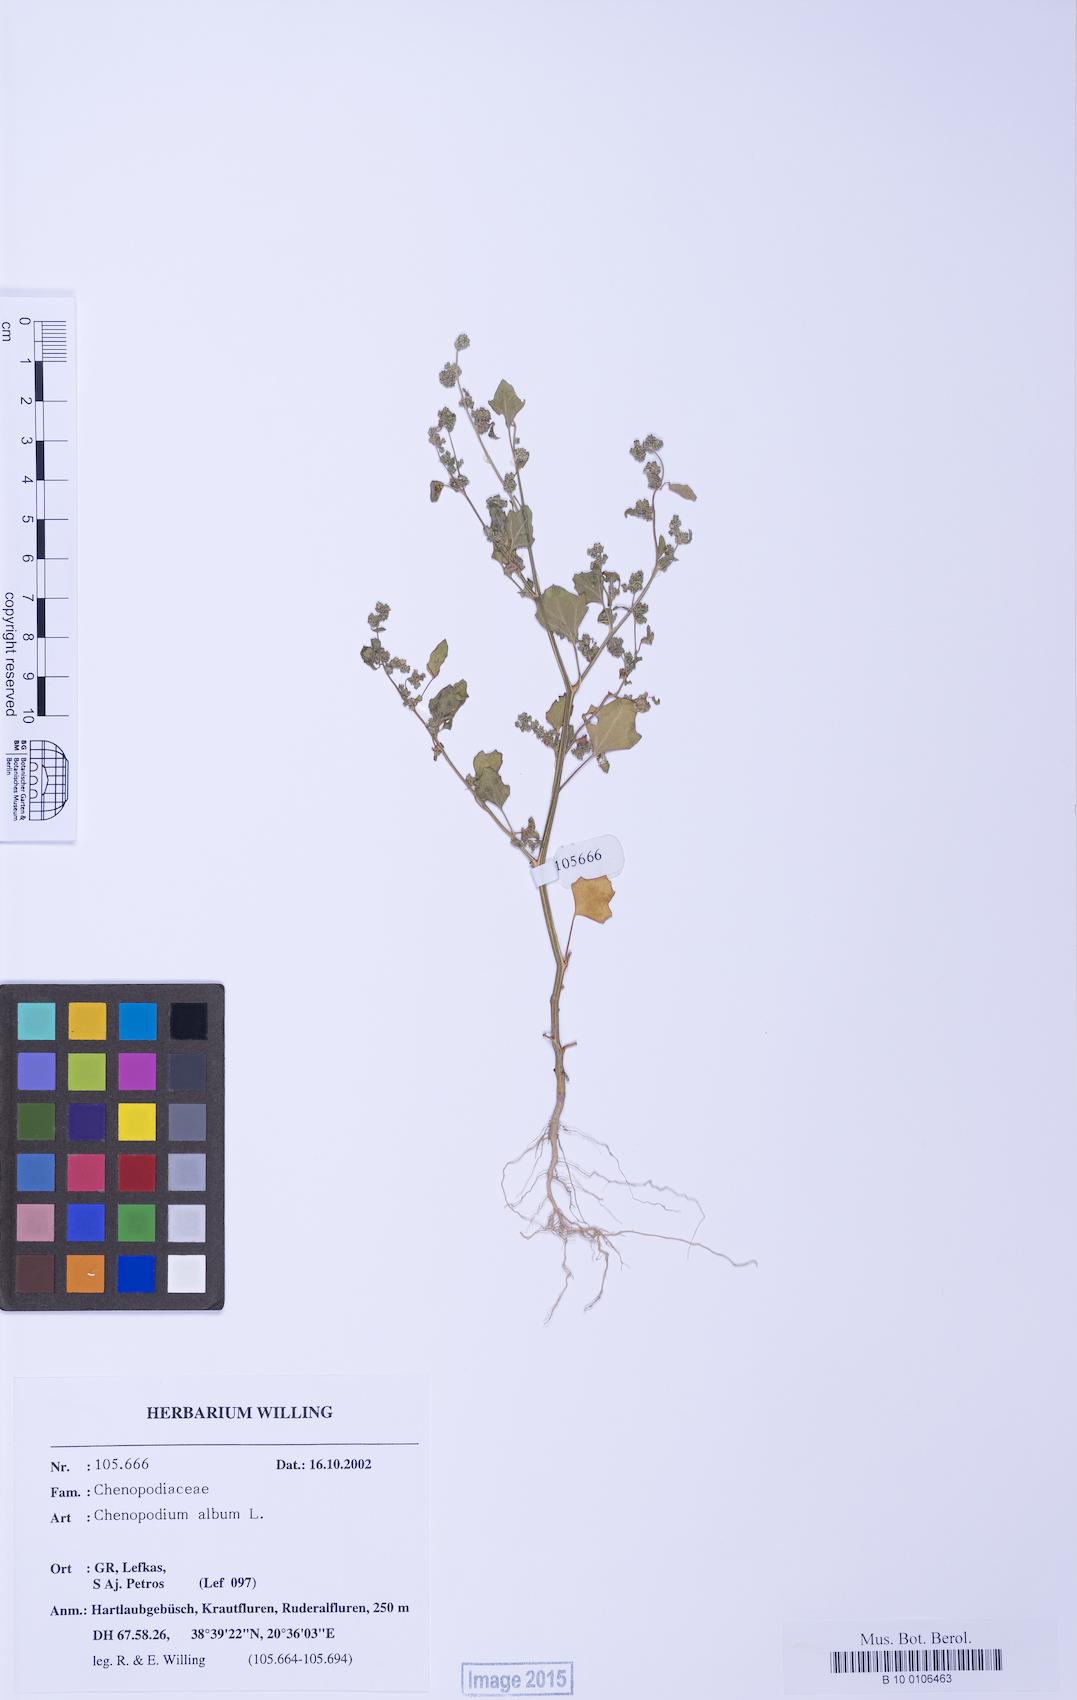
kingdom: Plantae
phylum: Tracheophyta
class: Magnoliopsida
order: Caryophyllales
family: Amaranthaceae
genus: Chenopodium
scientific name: Chenopodium opulifolium
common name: Grey goosefoot
